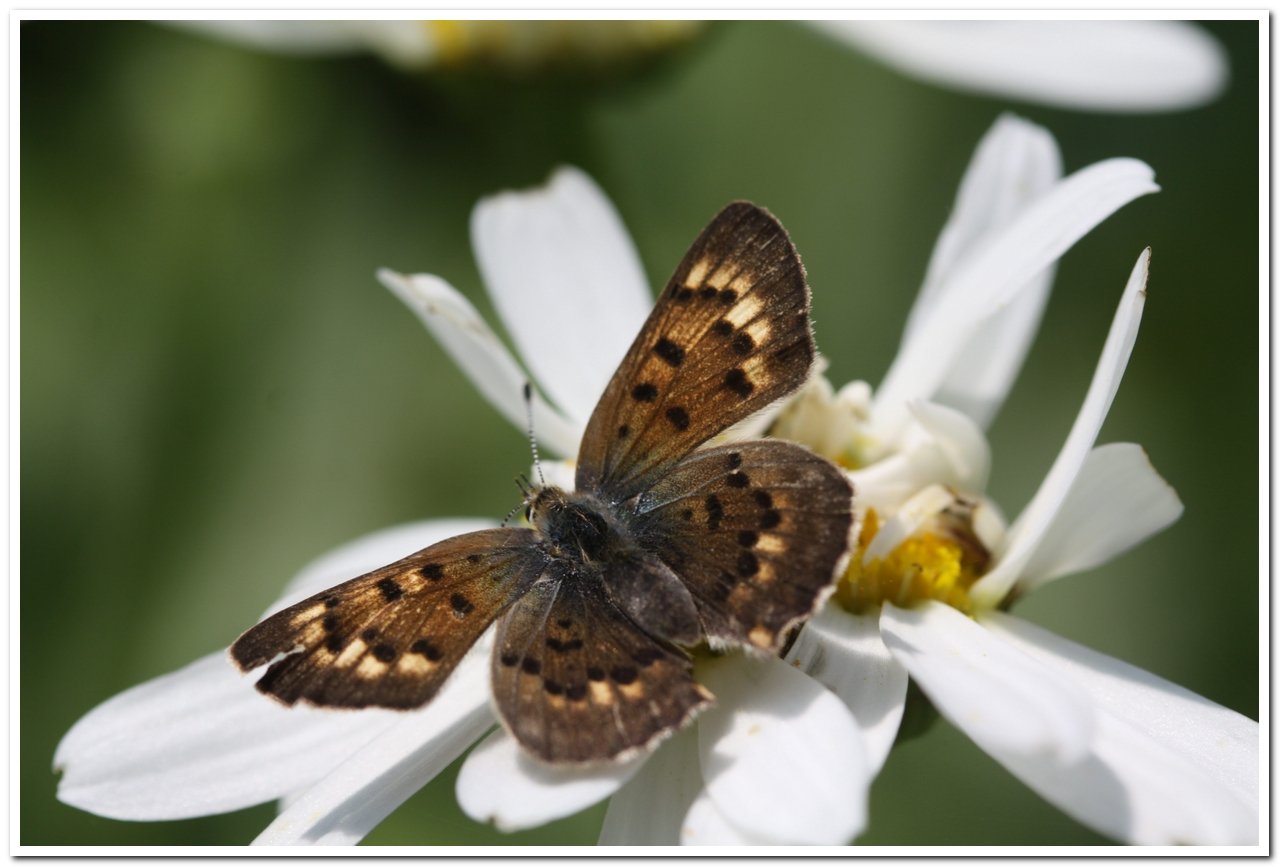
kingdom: Animalia
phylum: Arthropoda
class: Insecta
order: Lepidoptera
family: Lycaenidae
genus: Epidemia
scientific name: Epidemia dorcas
